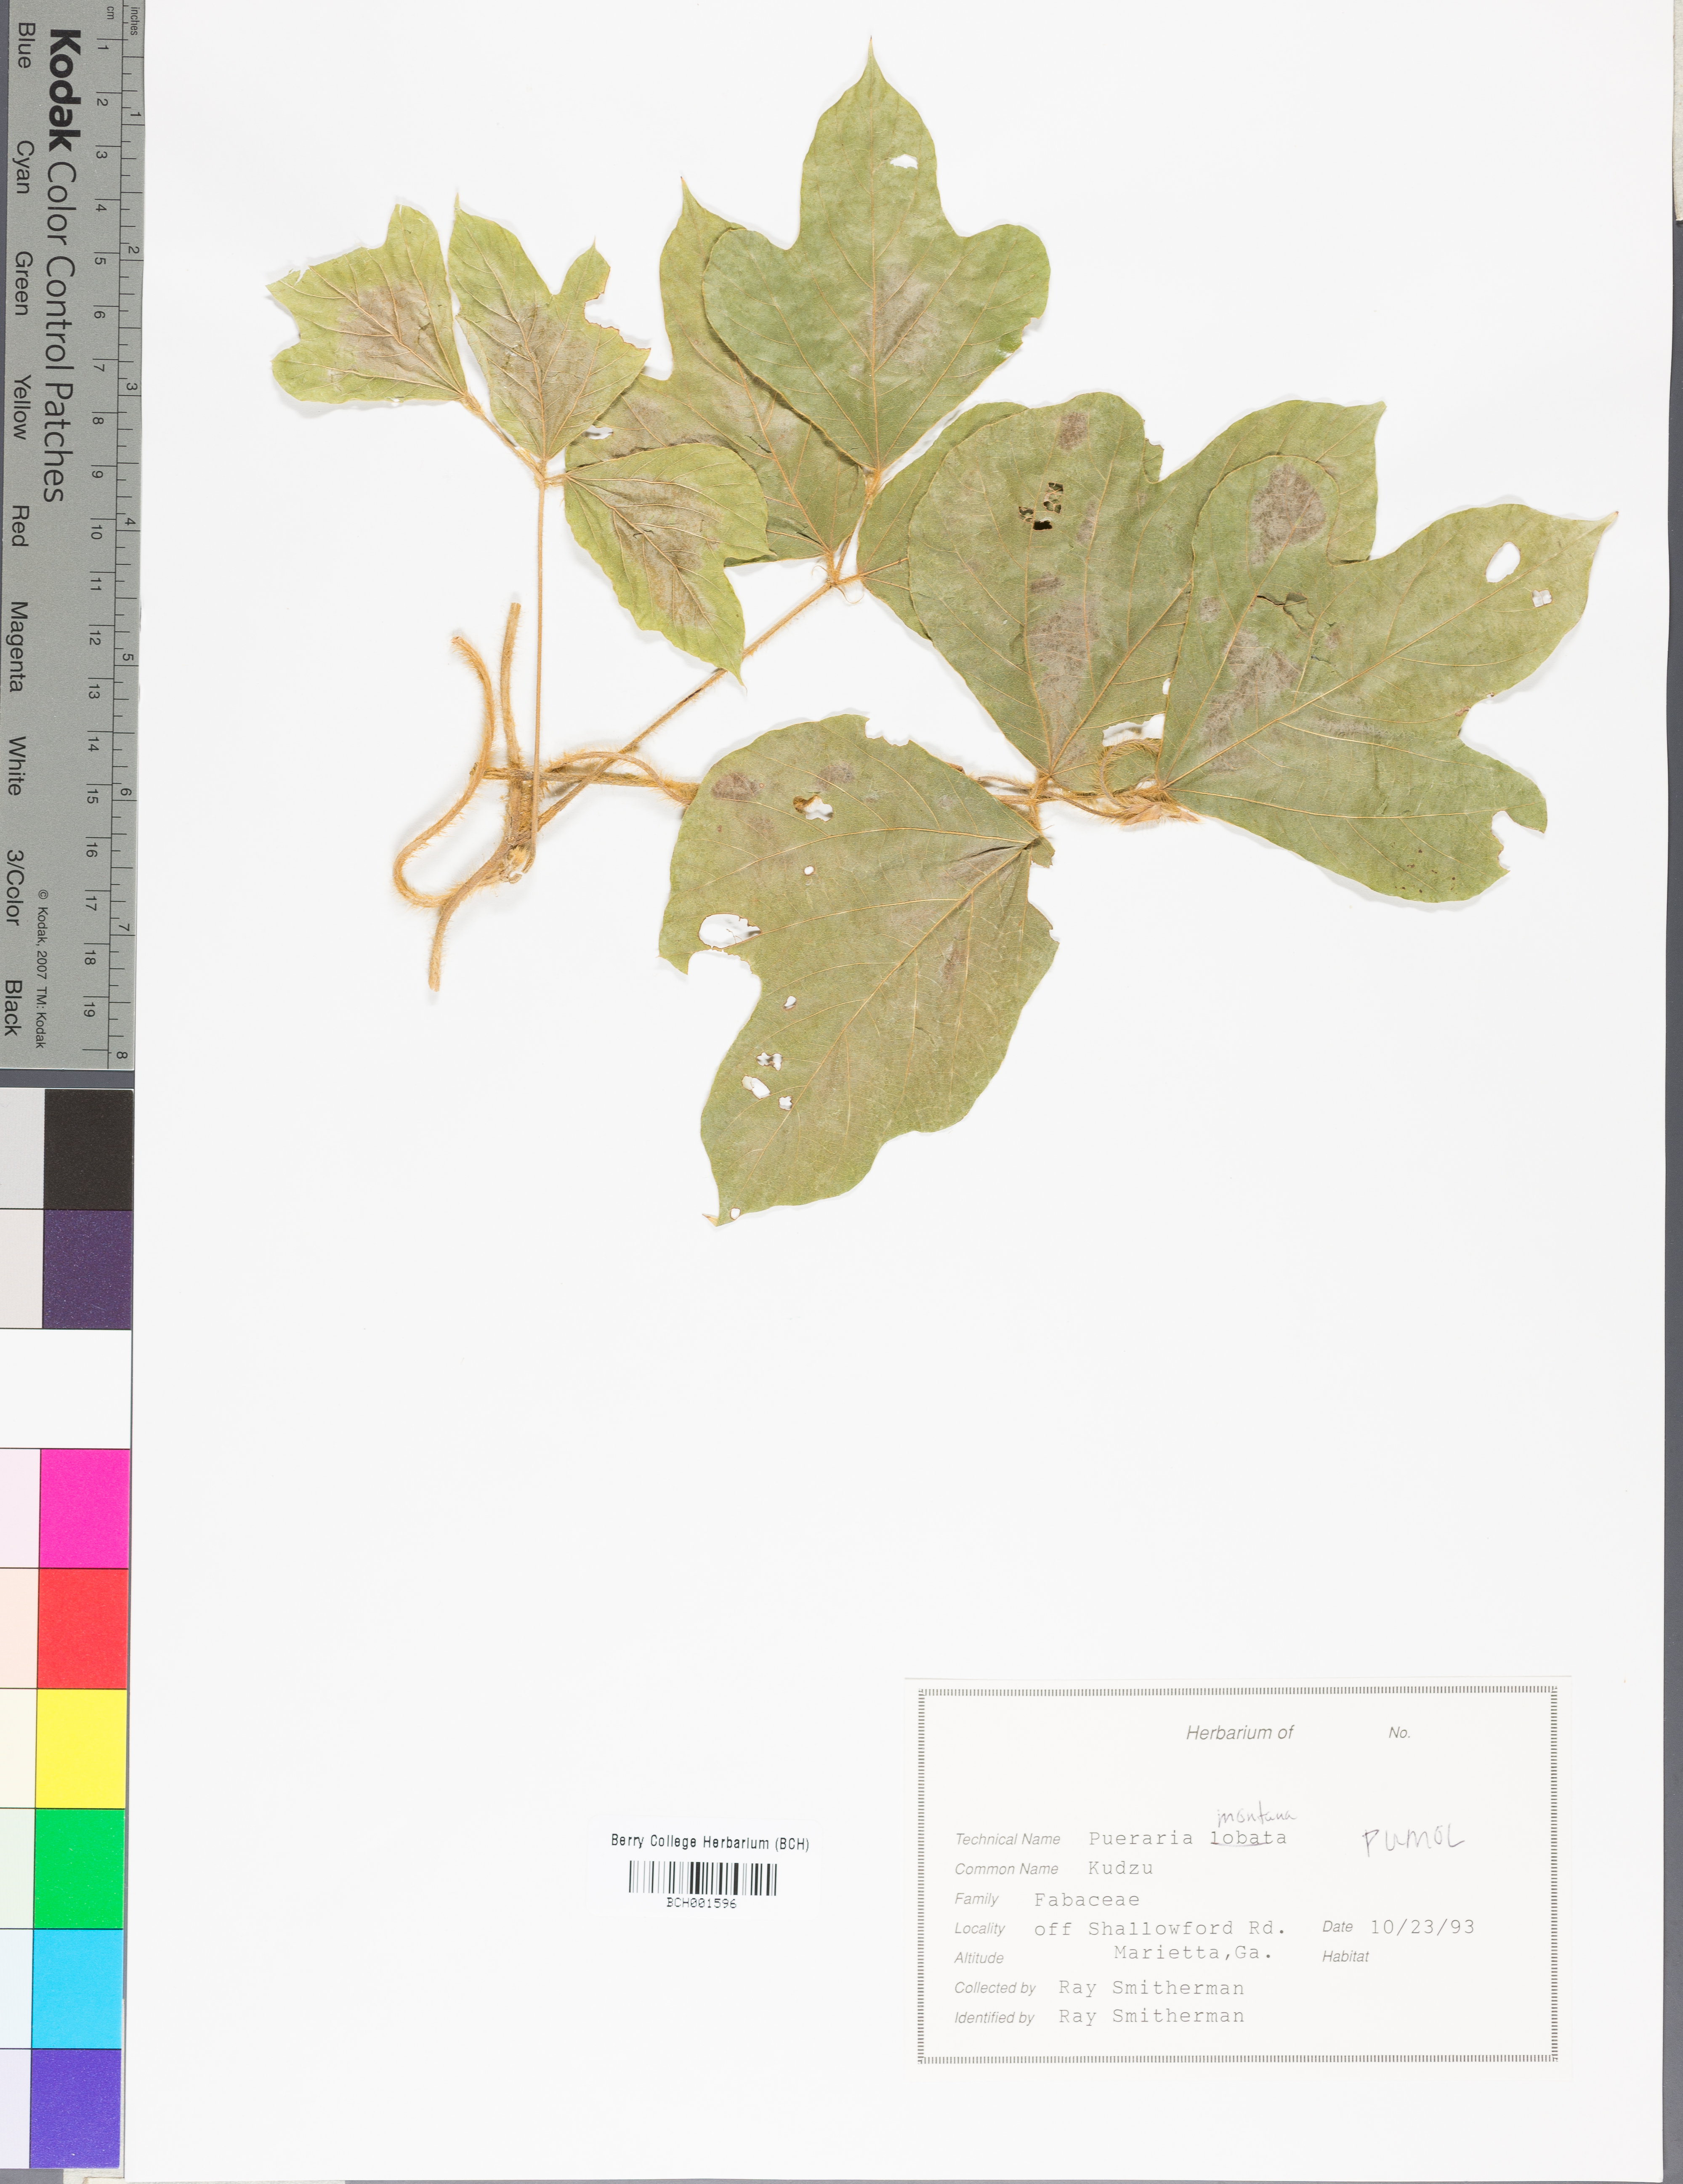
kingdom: Plantae
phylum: Tracheophyta
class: Magnoliopsida
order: Fabales
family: Fabaceae
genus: Pueraria
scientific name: Pueraria montana
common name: Kudzu
